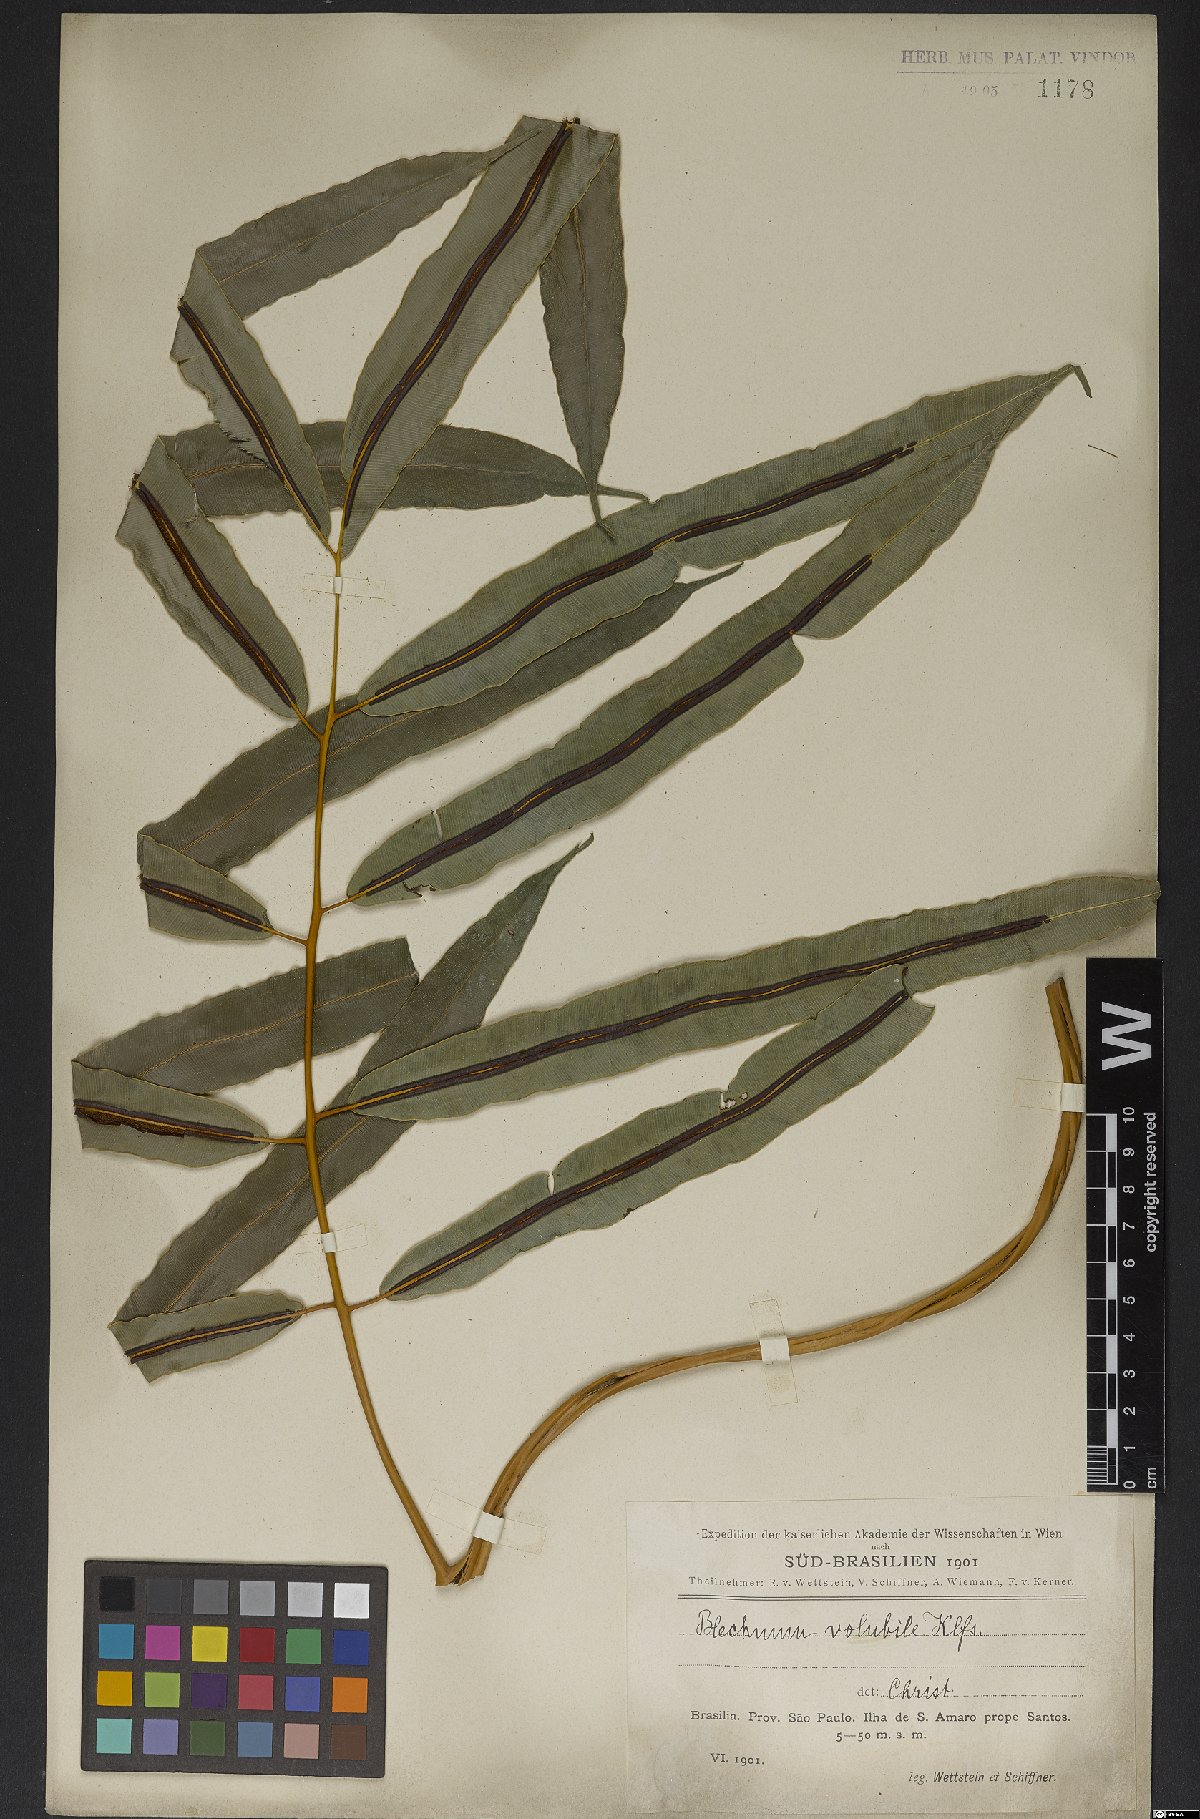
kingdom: Plantae
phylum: Tracheophyta
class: Polypodiopsida
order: Polypodiales
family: Blechnaceae
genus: Salpichlaena
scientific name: Salpichlaena volubilis
